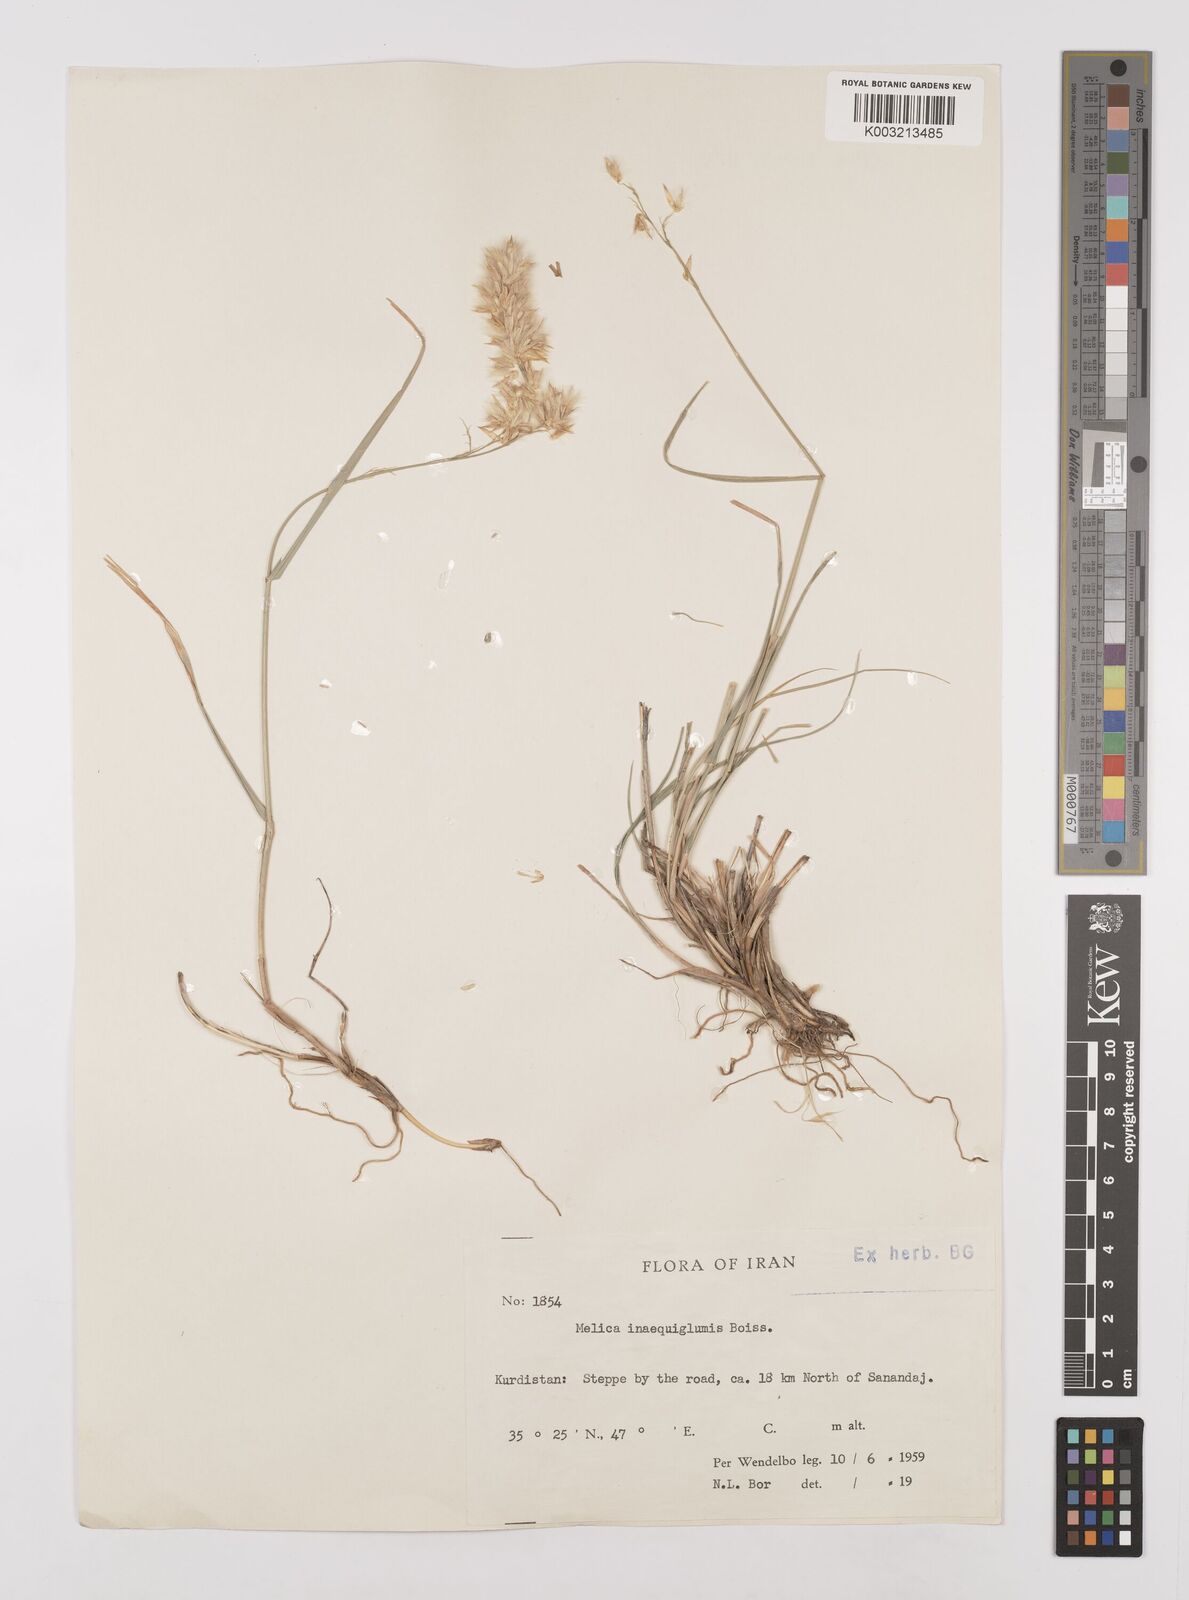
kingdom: Plantae
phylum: Tracheophyta
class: Liliopsida
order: Poales
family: Poaceae
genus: Melica
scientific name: Melica persica
